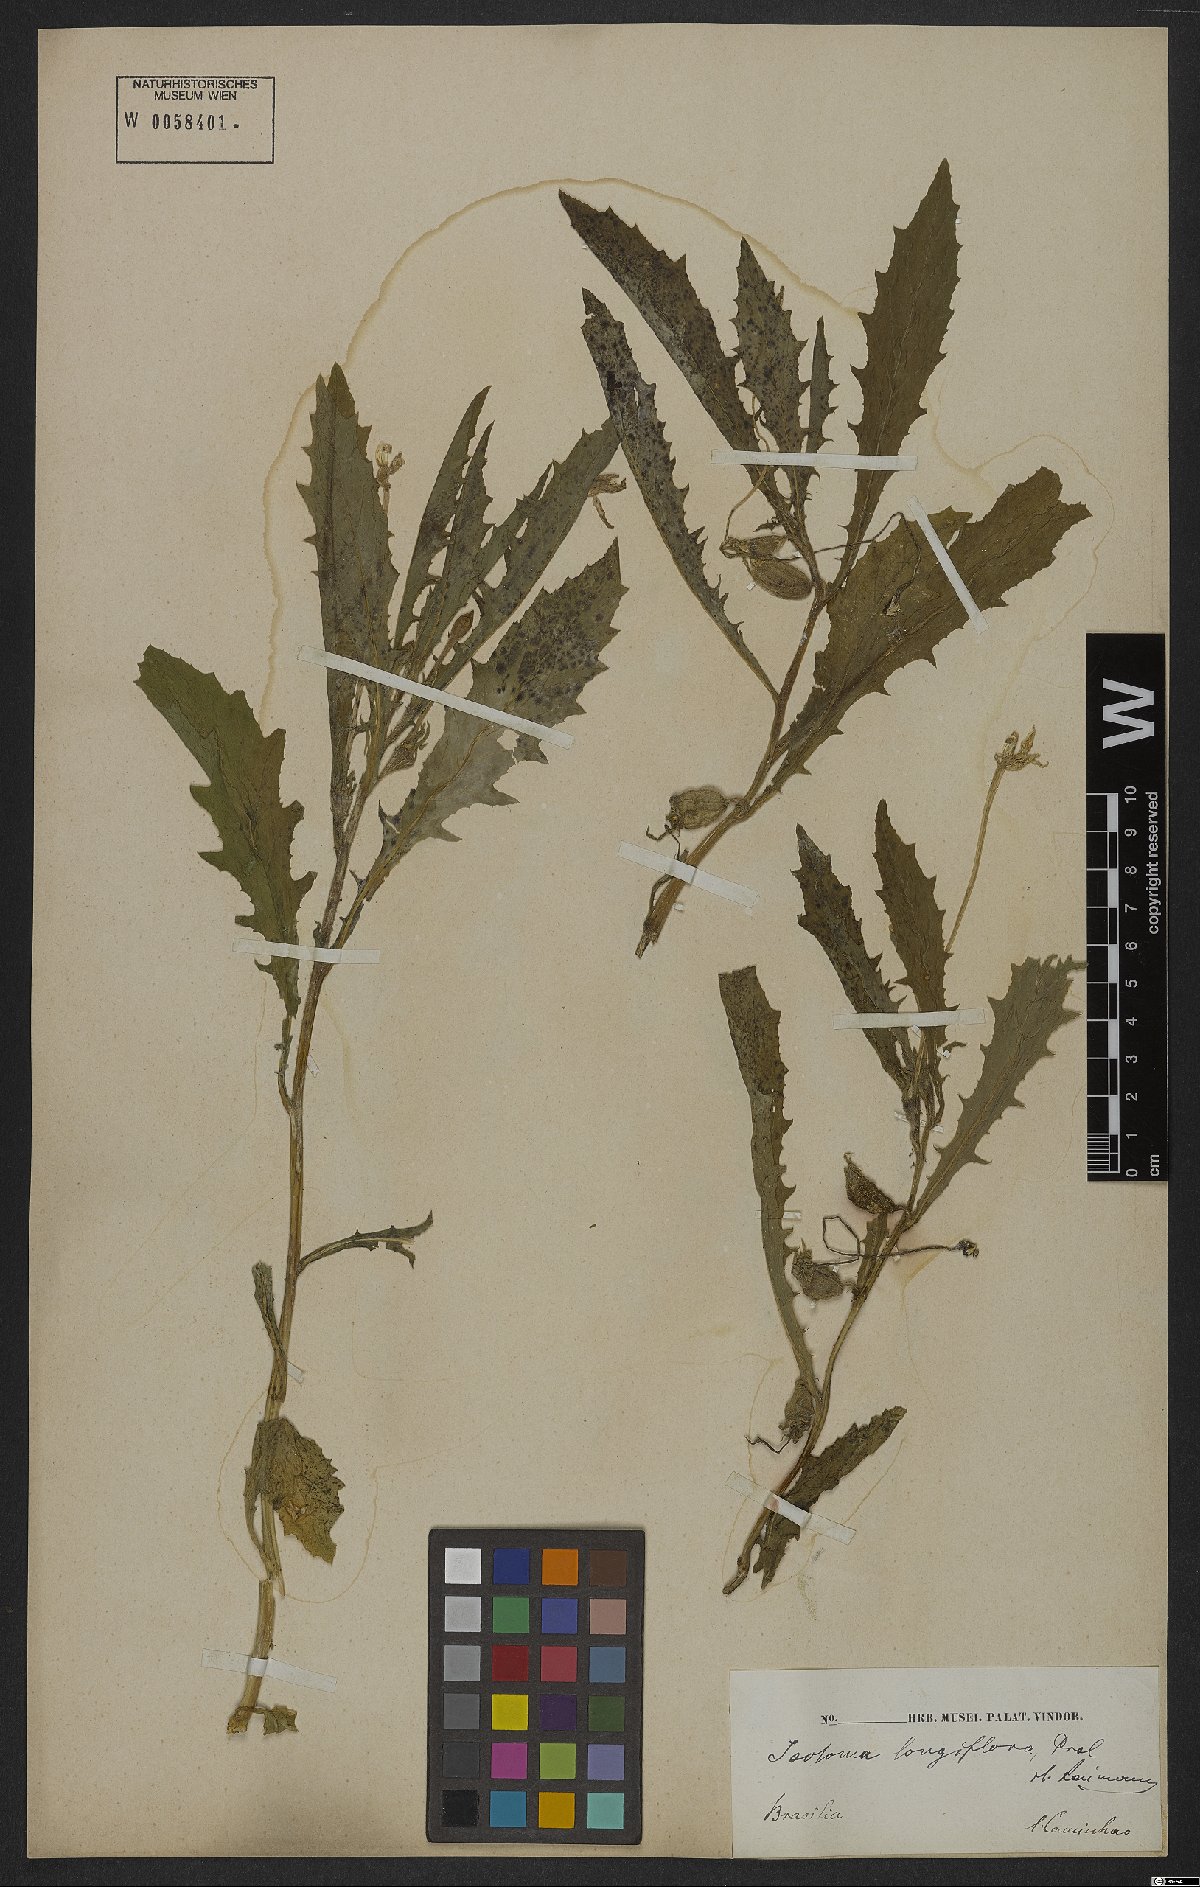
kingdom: Plantae
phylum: Tracheophyta
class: Magnoliopsida
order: Asterales
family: Campanulaceae
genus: Hippobroma
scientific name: Hippobroma longiflora
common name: Madamfate
